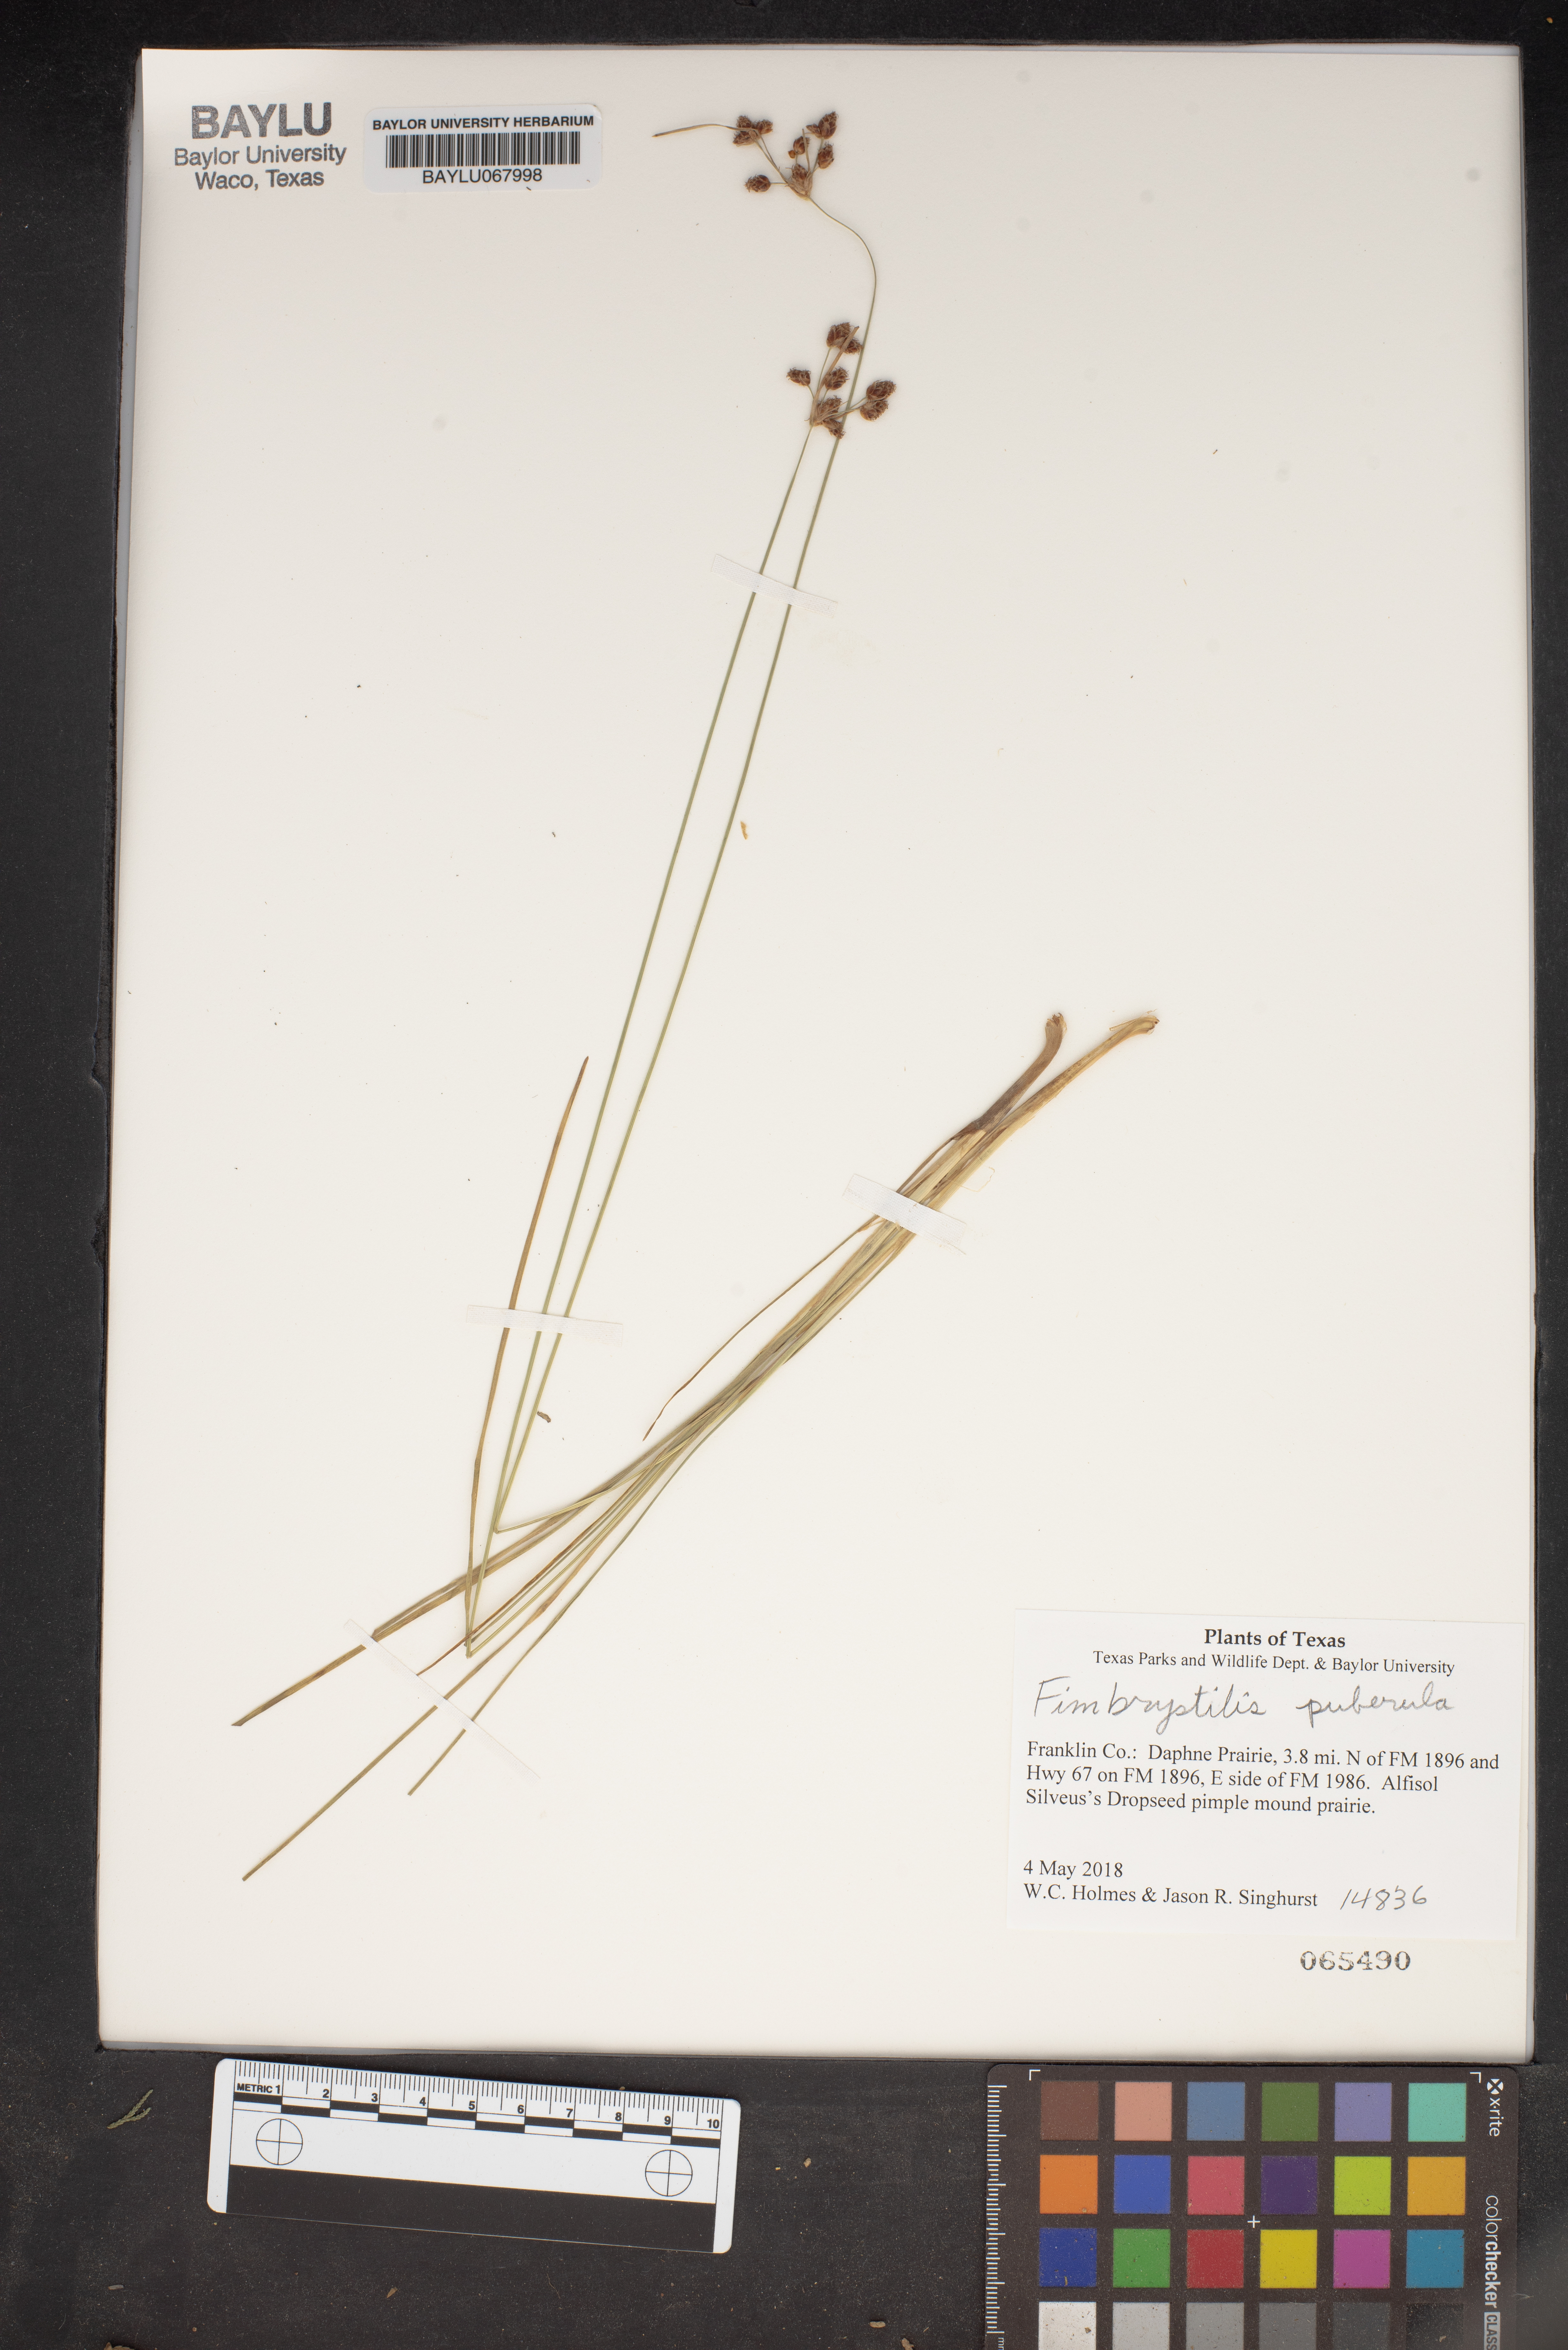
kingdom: Plantae
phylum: Tracheophyta
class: Liliopsida
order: Poales
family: Cyperaceae
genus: Fimbristylis
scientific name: Fimbristylis puberula
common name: Hairy fimbristylis
